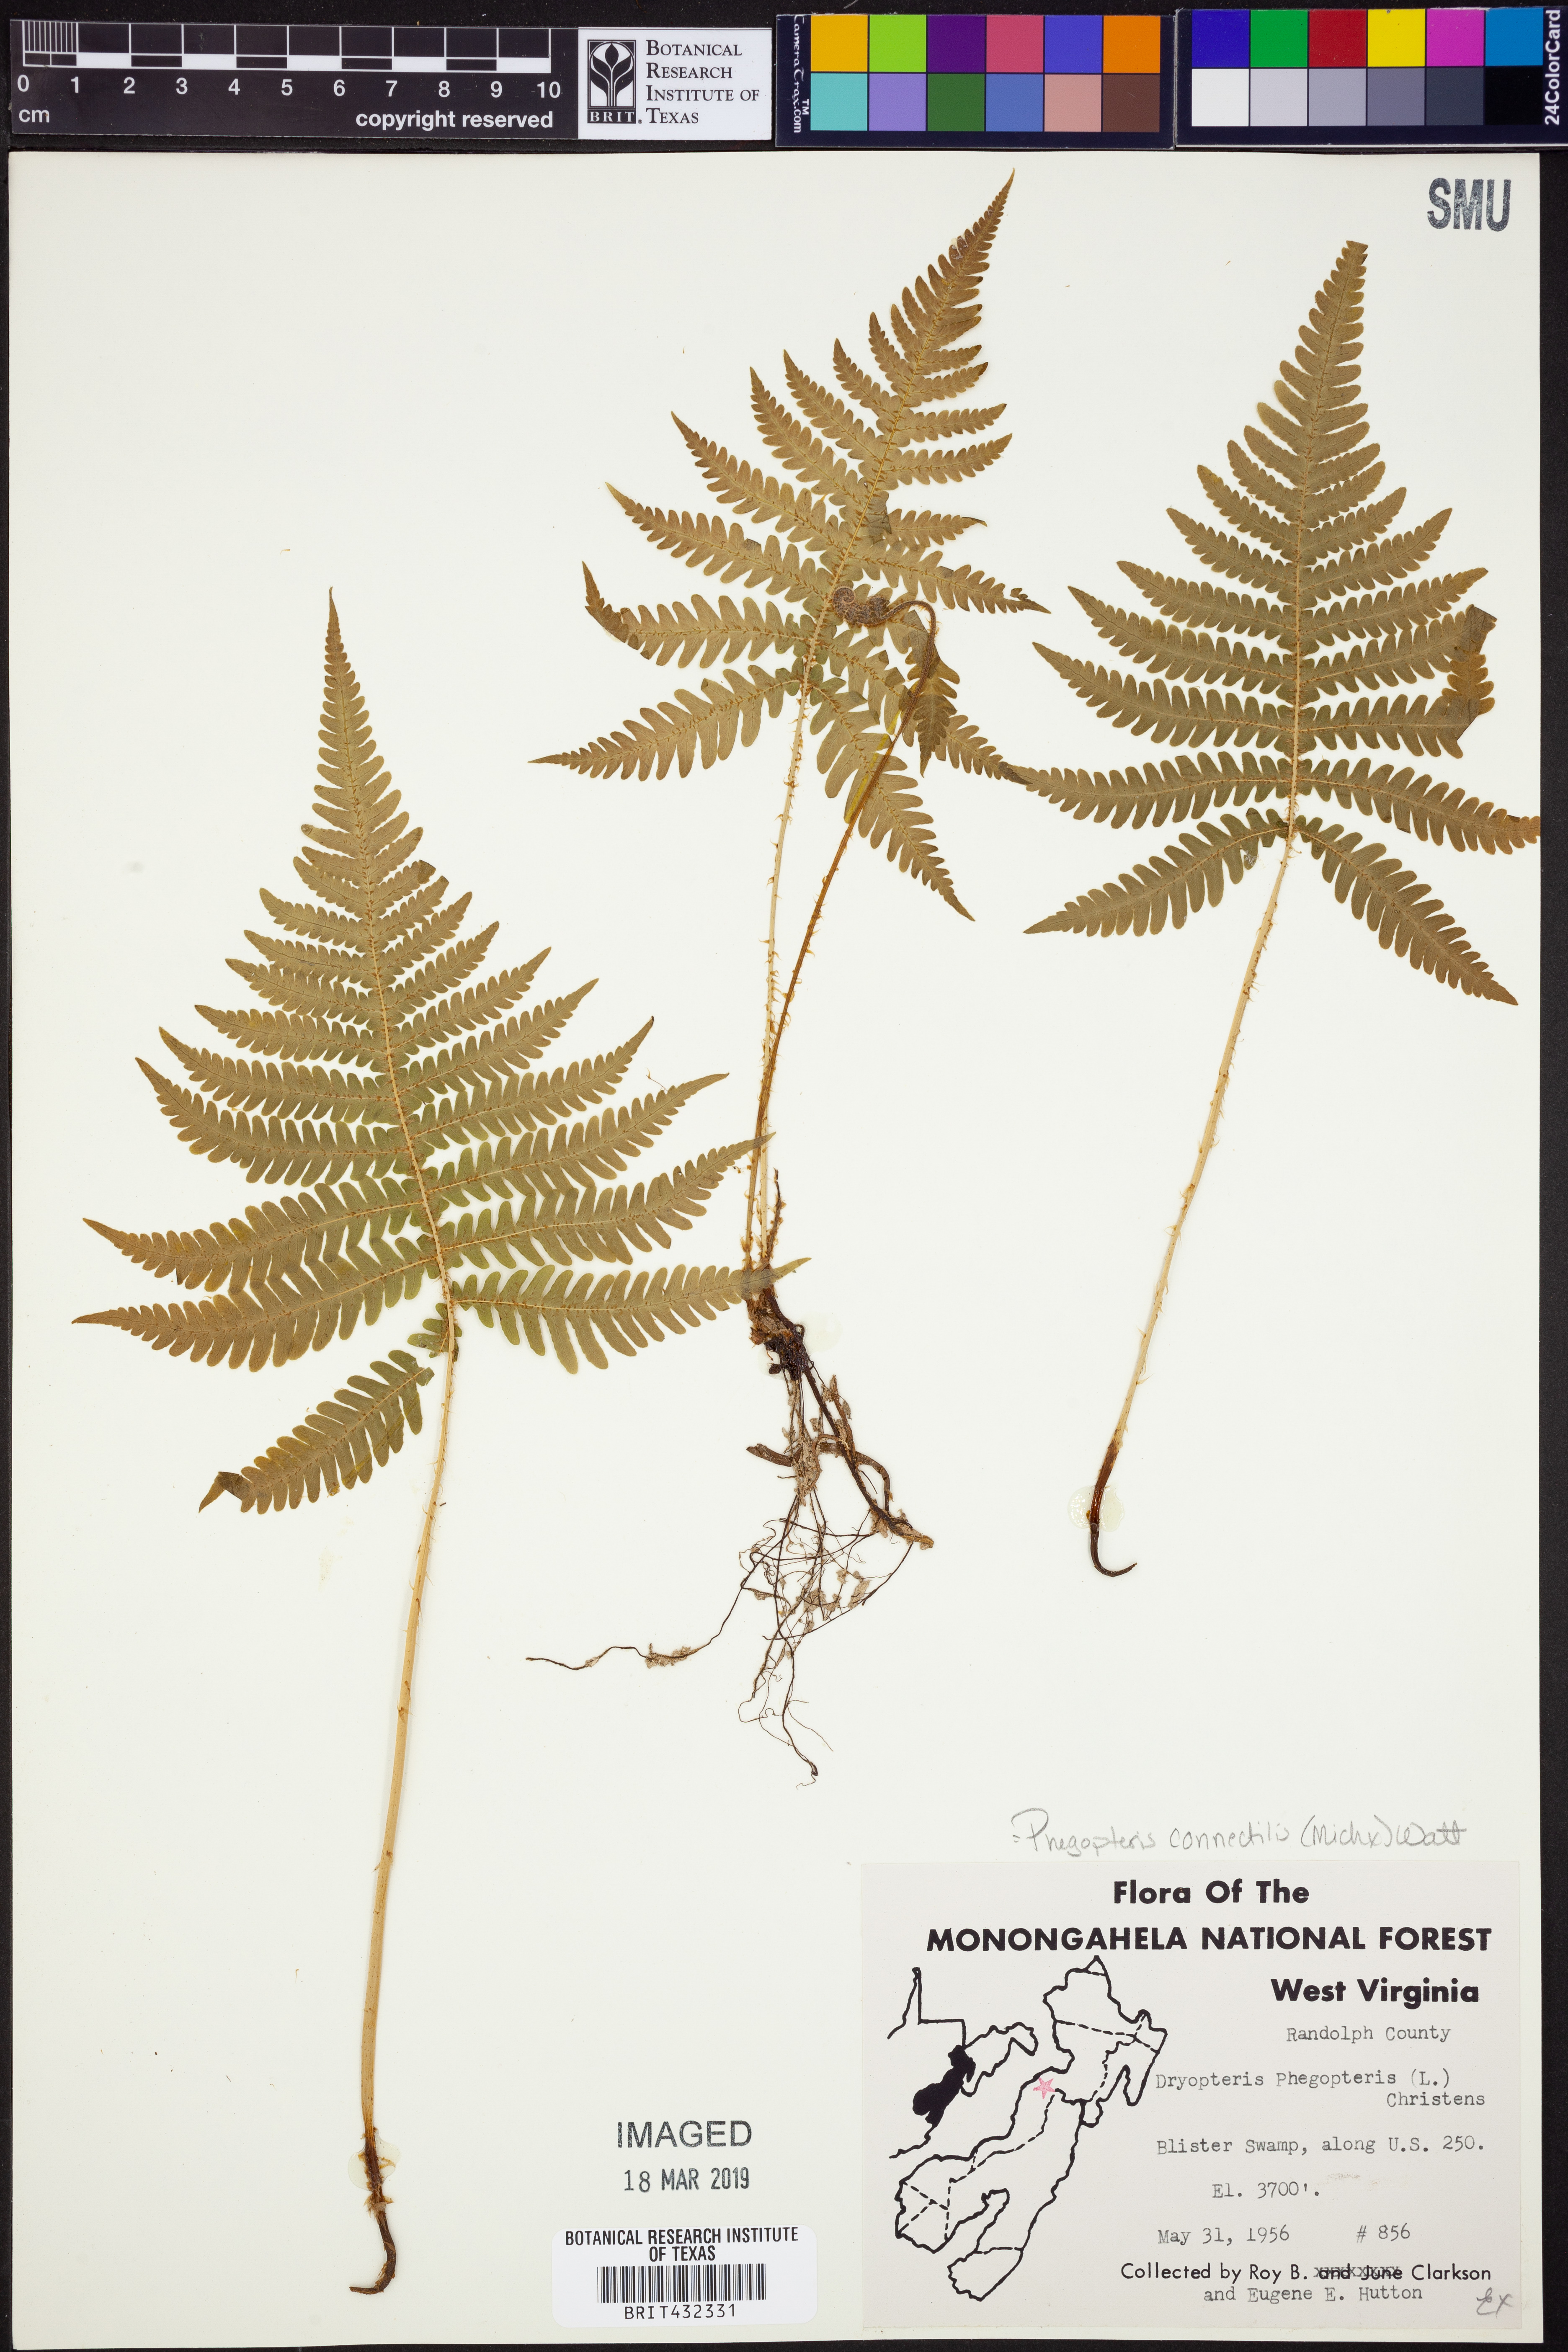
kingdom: Plantae
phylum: Tracheophyta
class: Polypodiopsida
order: Polypodiales
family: Thelypteridaceae
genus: Phegopteris
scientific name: Phegopteris connectilis
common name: Beech fern
